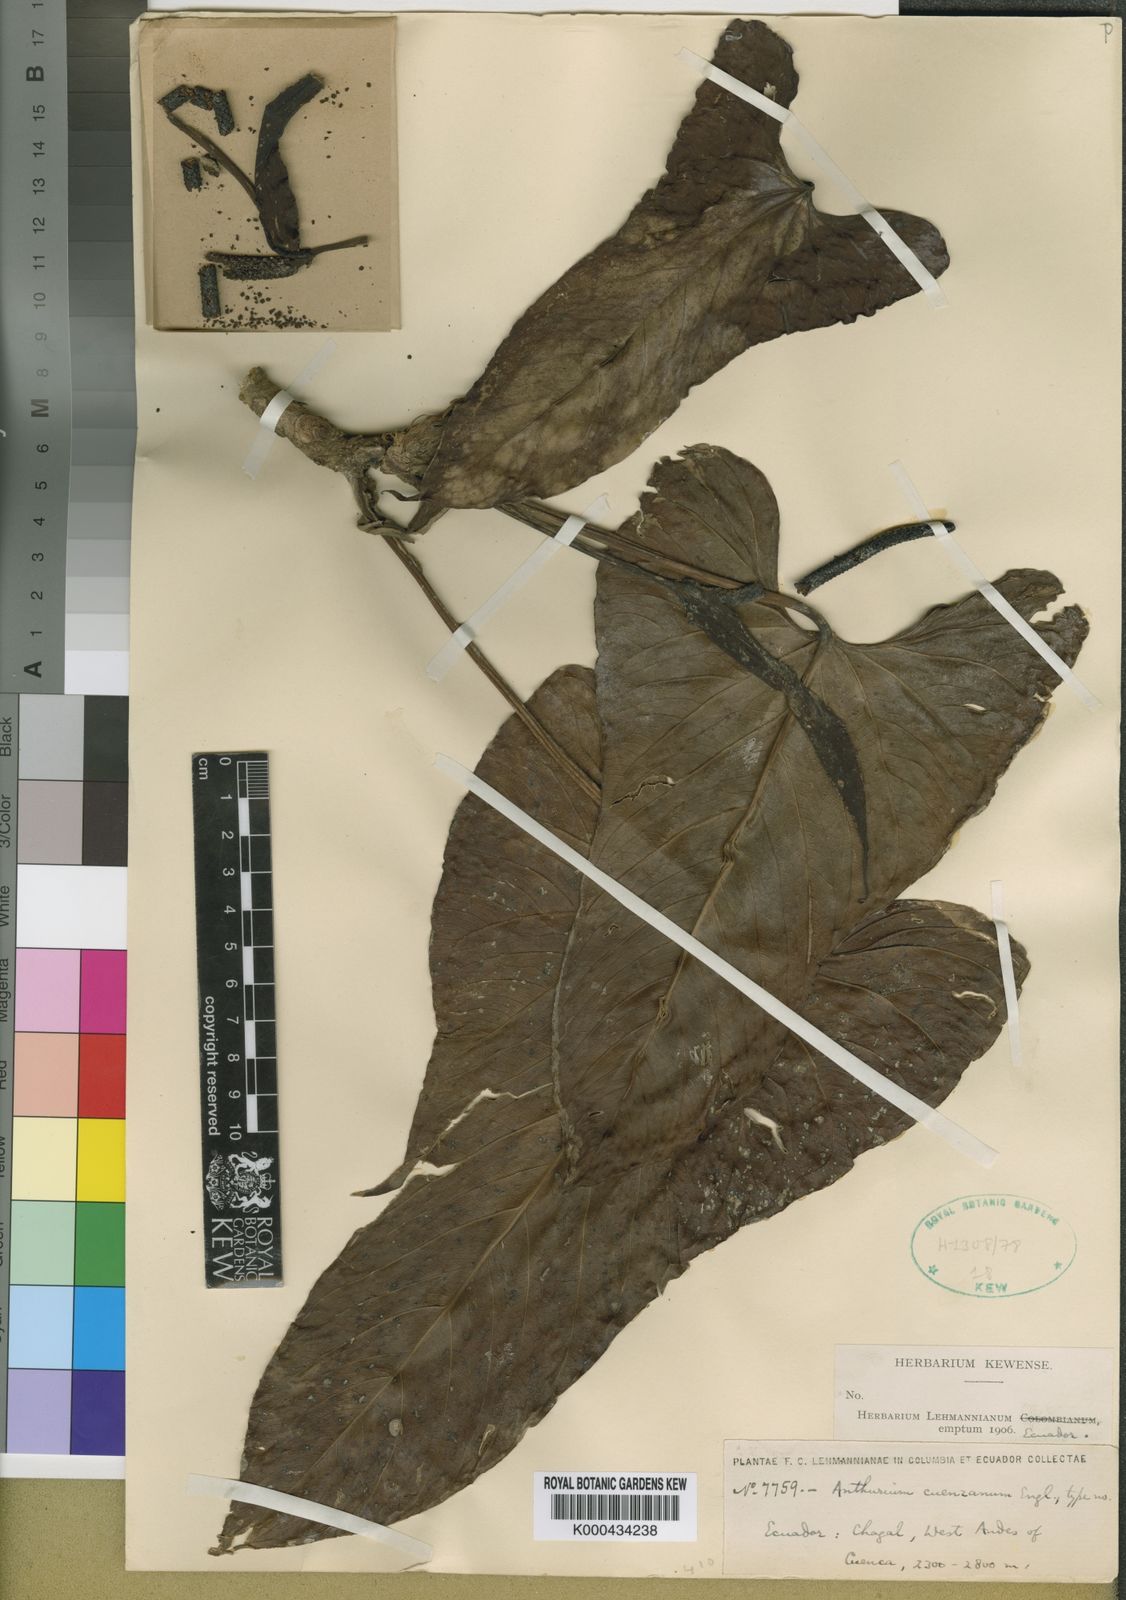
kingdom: Plantae
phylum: Tracheophyta
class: Liliopsida
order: Alismatales
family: Araceae
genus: Anthurium
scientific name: Anthurium nigrescens
